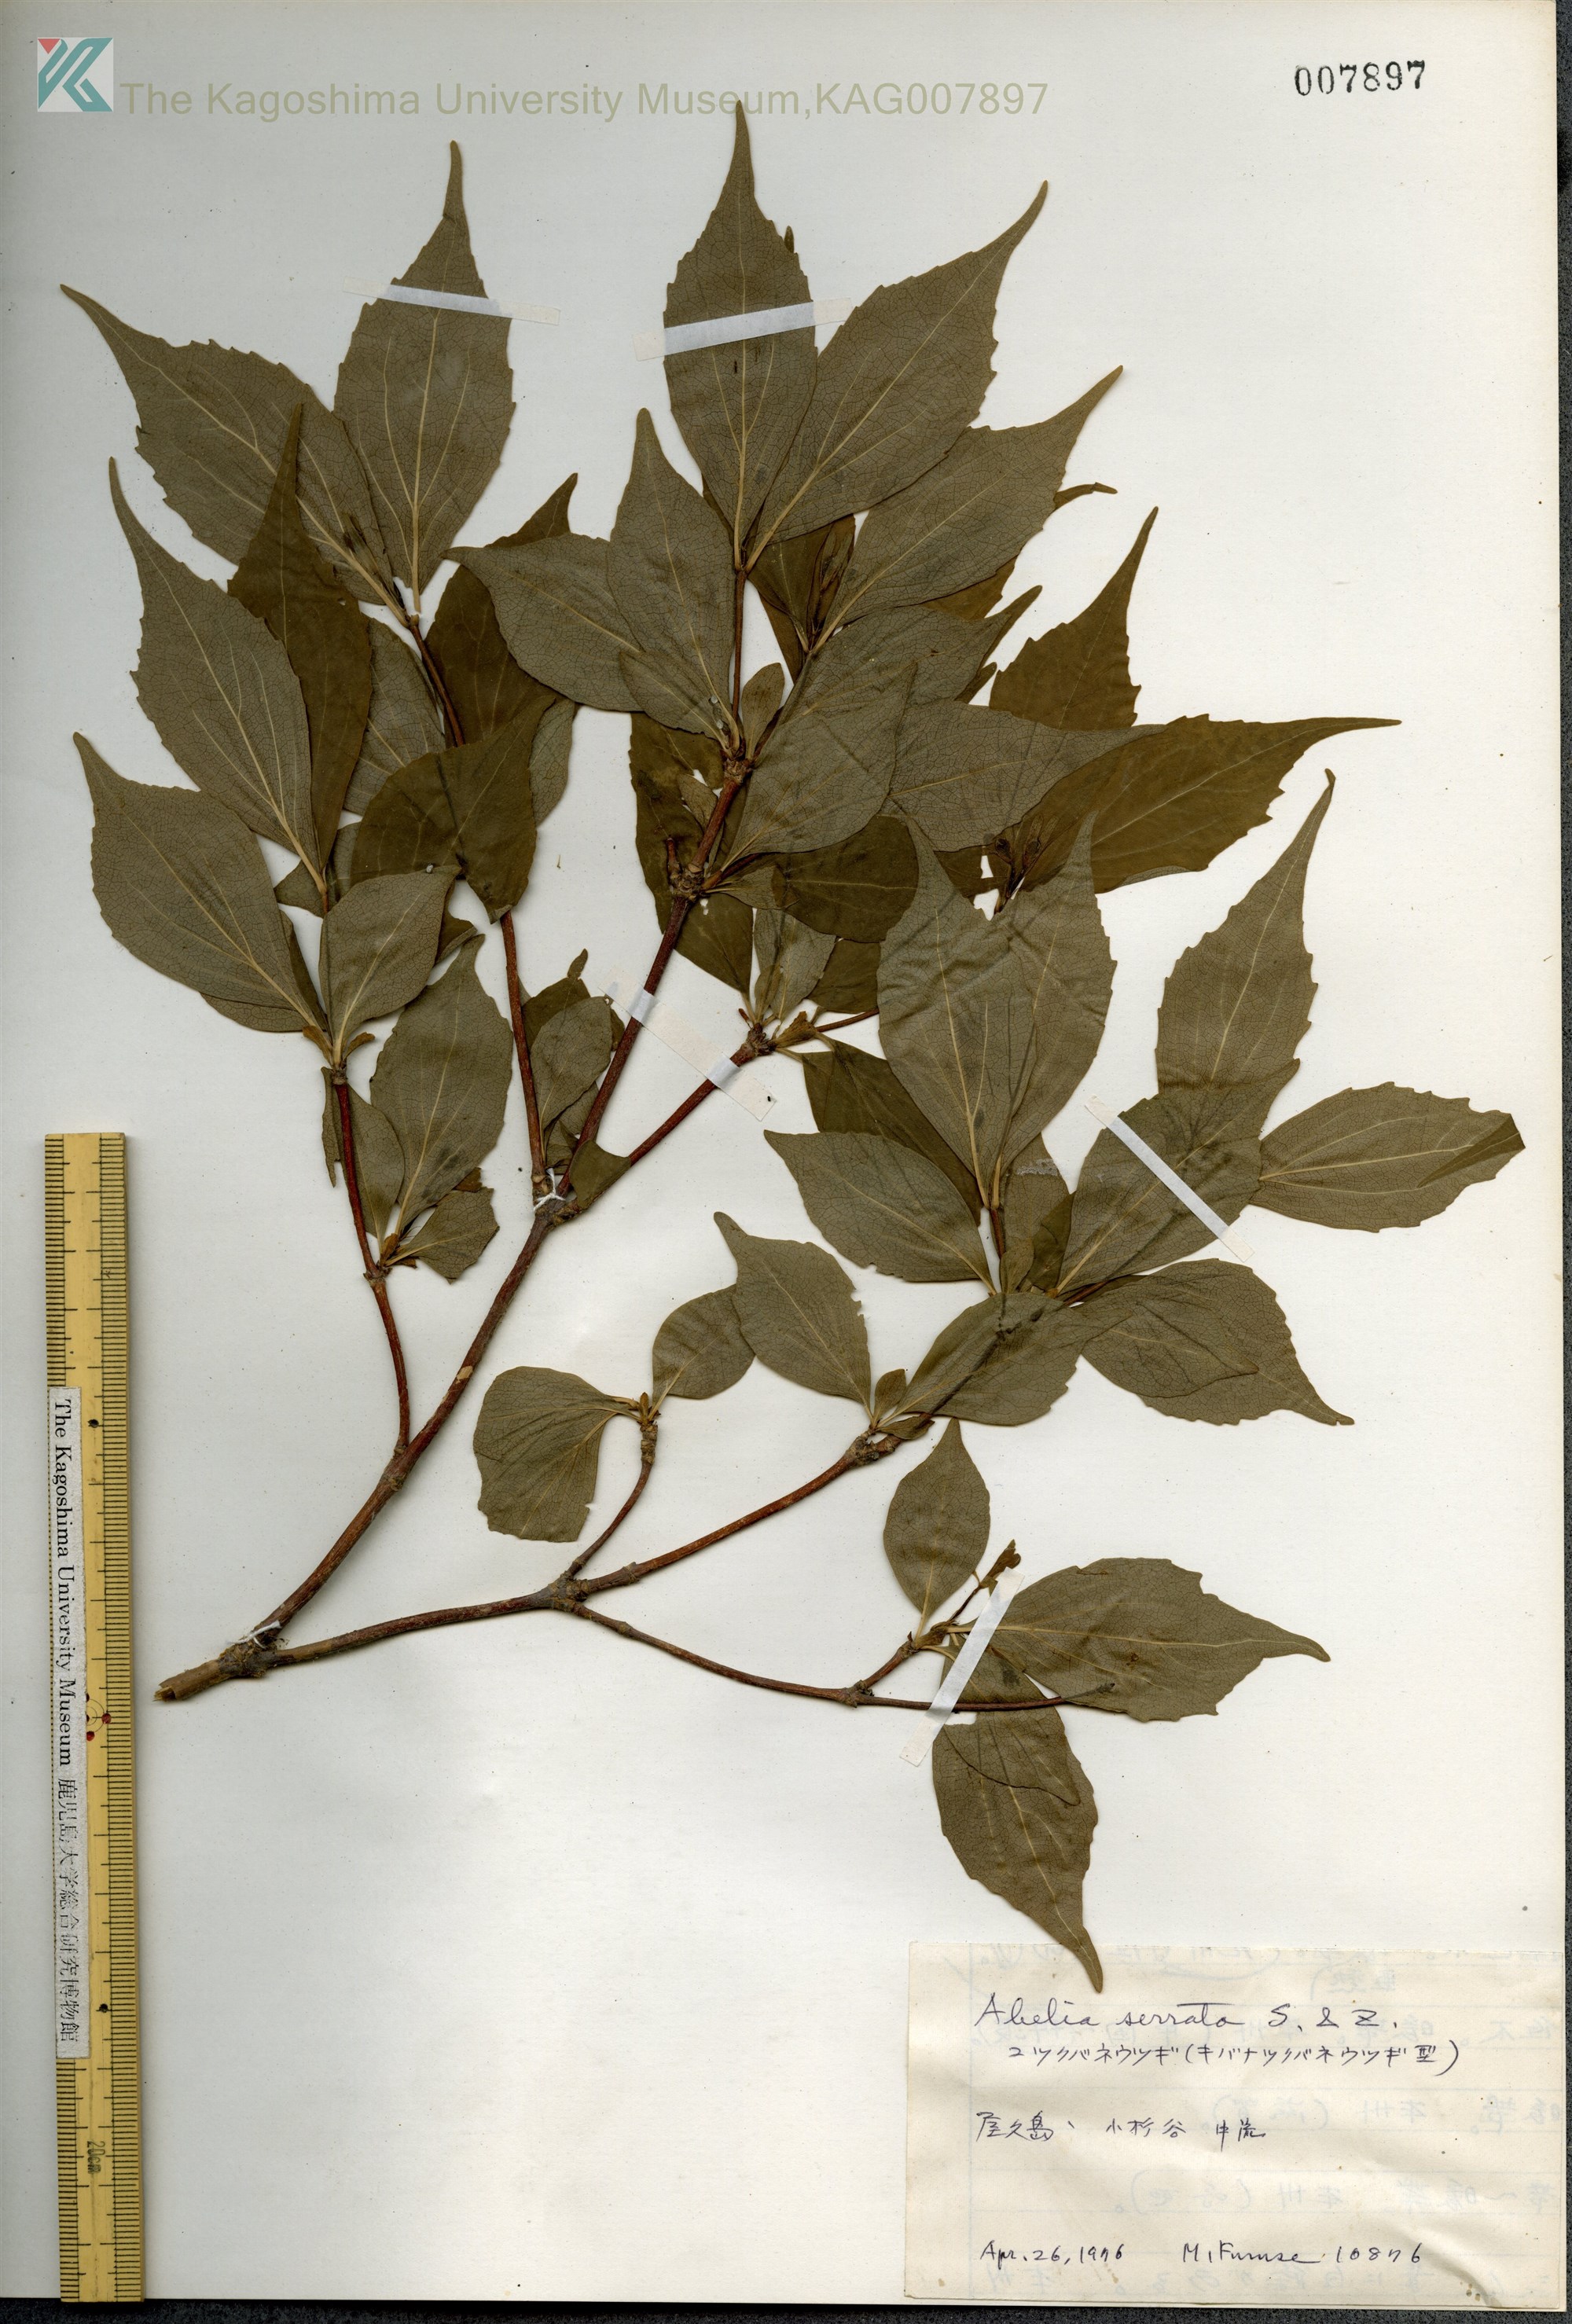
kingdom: Plantae
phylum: Tracheophyta
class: Magnoliopsida
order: Dipsacales
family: Caprifoliaceae
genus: Diabelia
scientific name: Diabelia serrata
